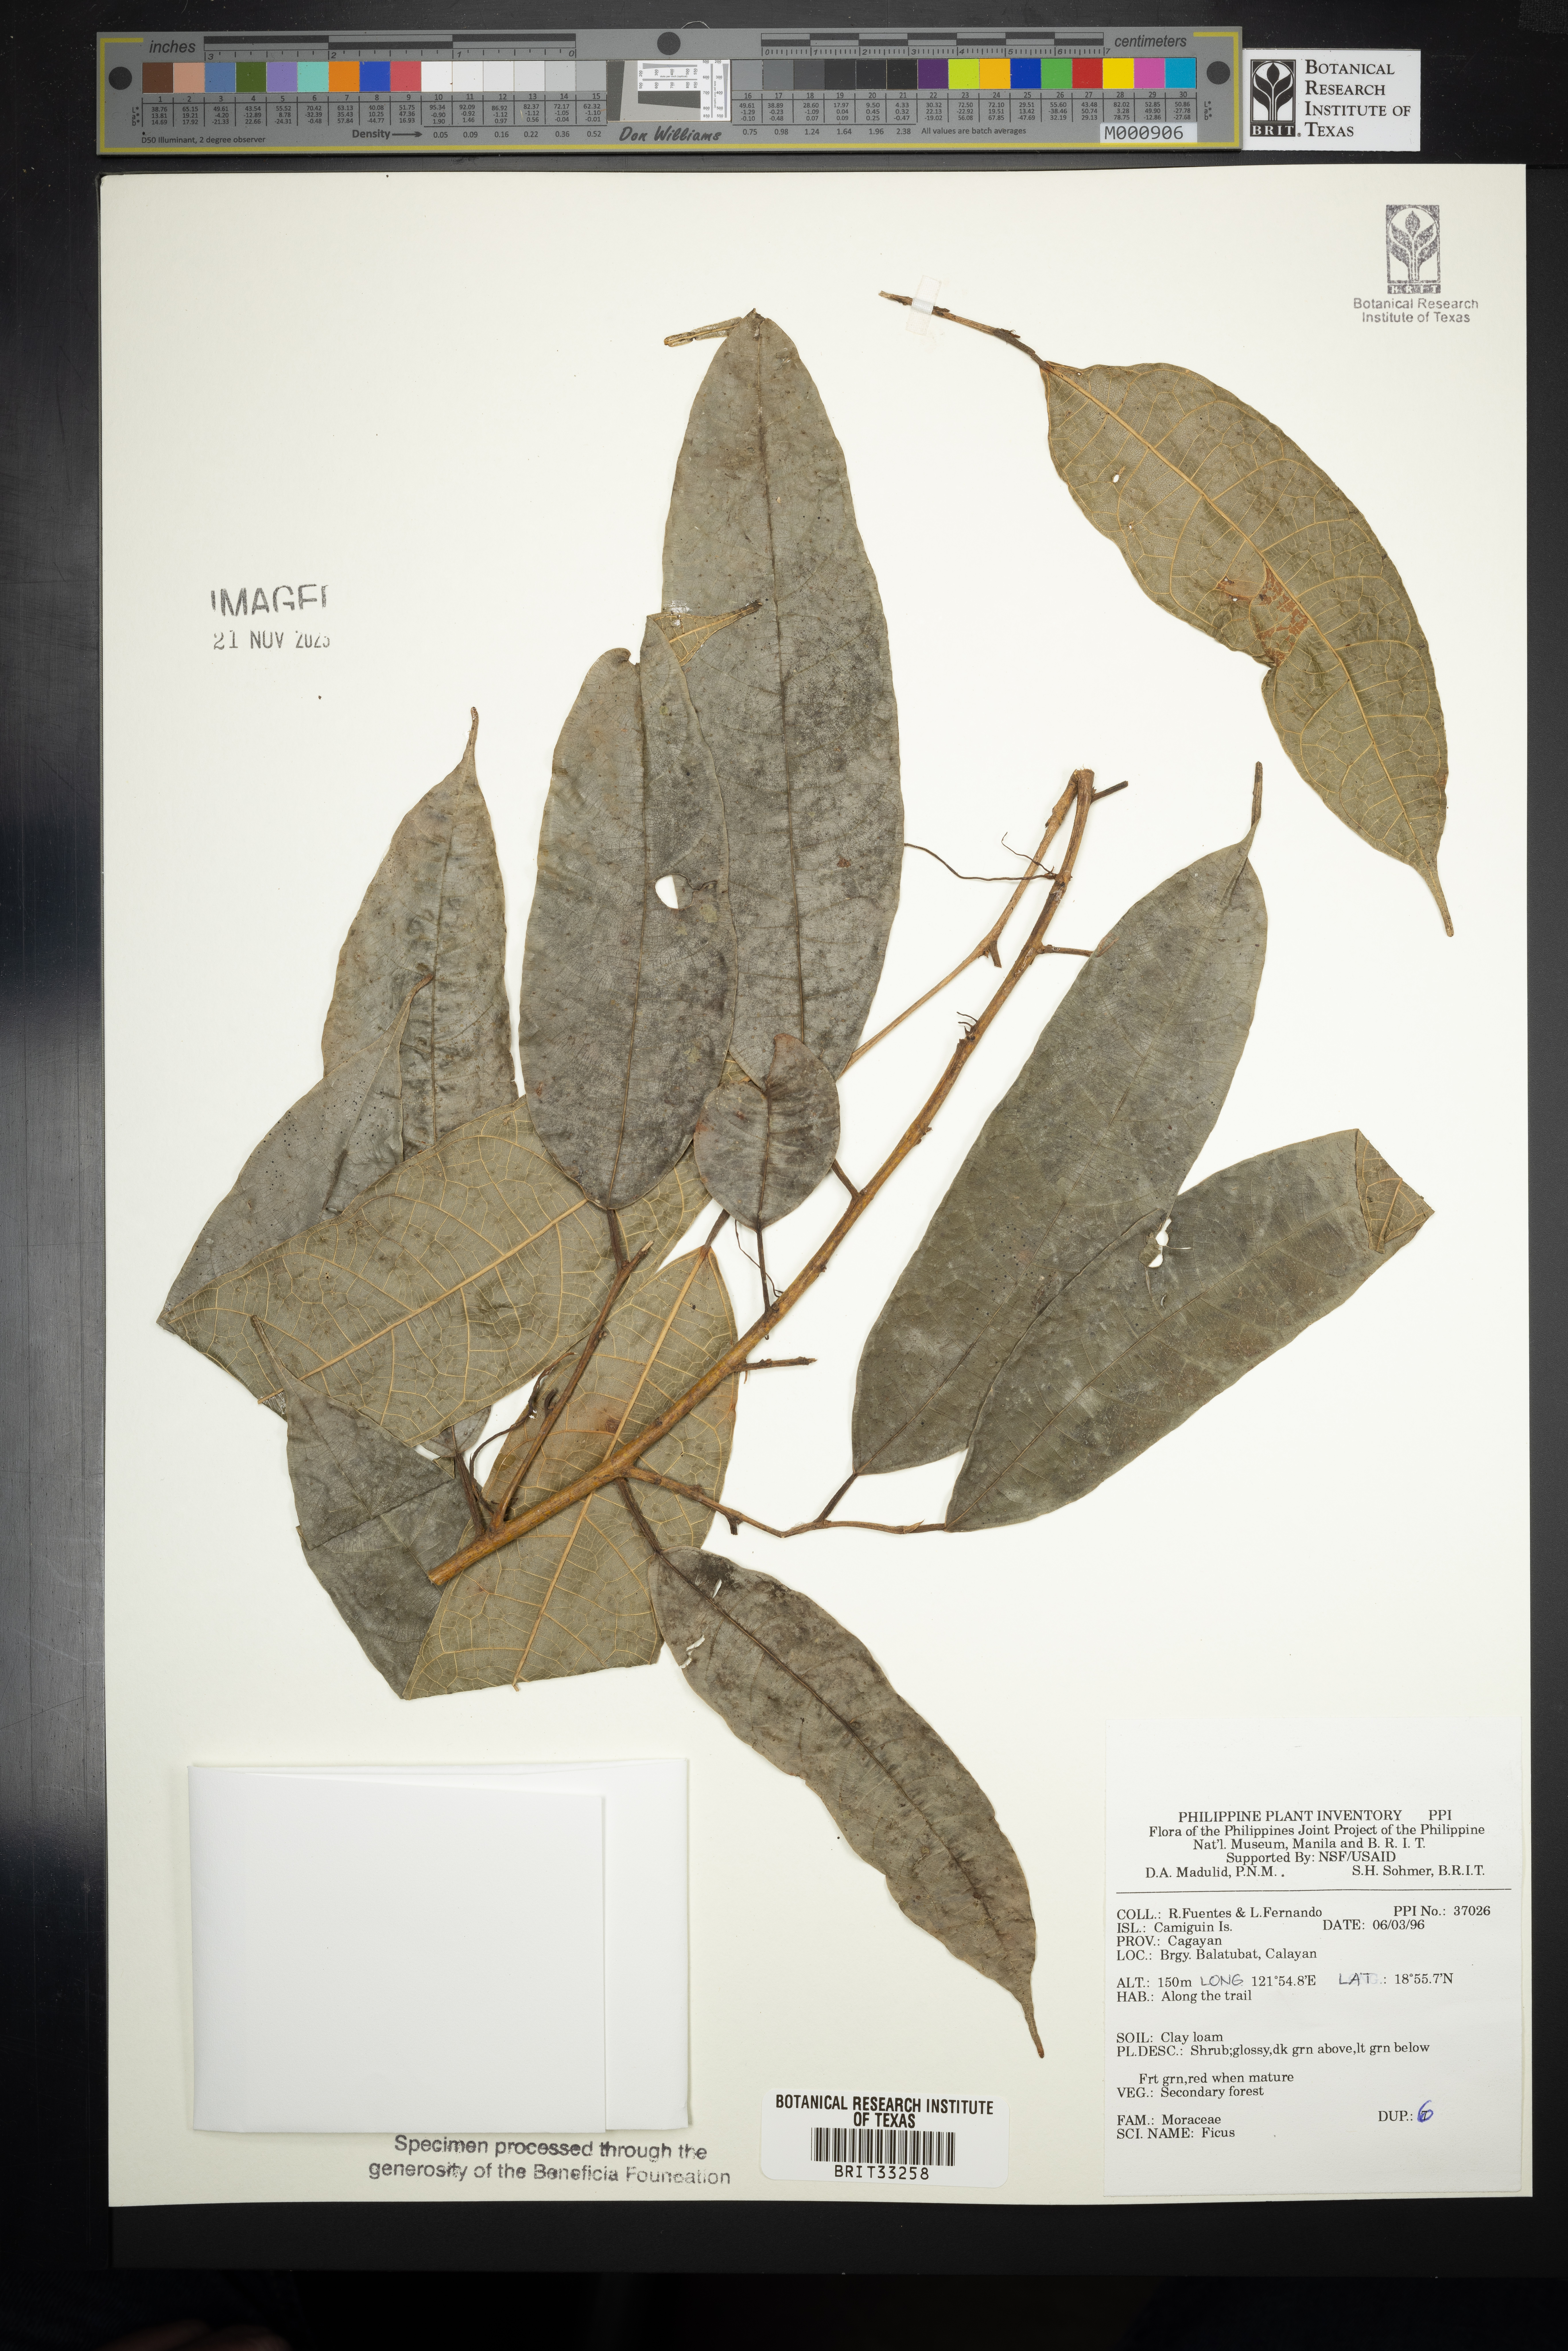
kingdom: Plantae
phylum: Tracheophyta
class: Magnoliopsida
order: Rosales
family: Moraceae
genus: Ficus
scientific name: Ficus
